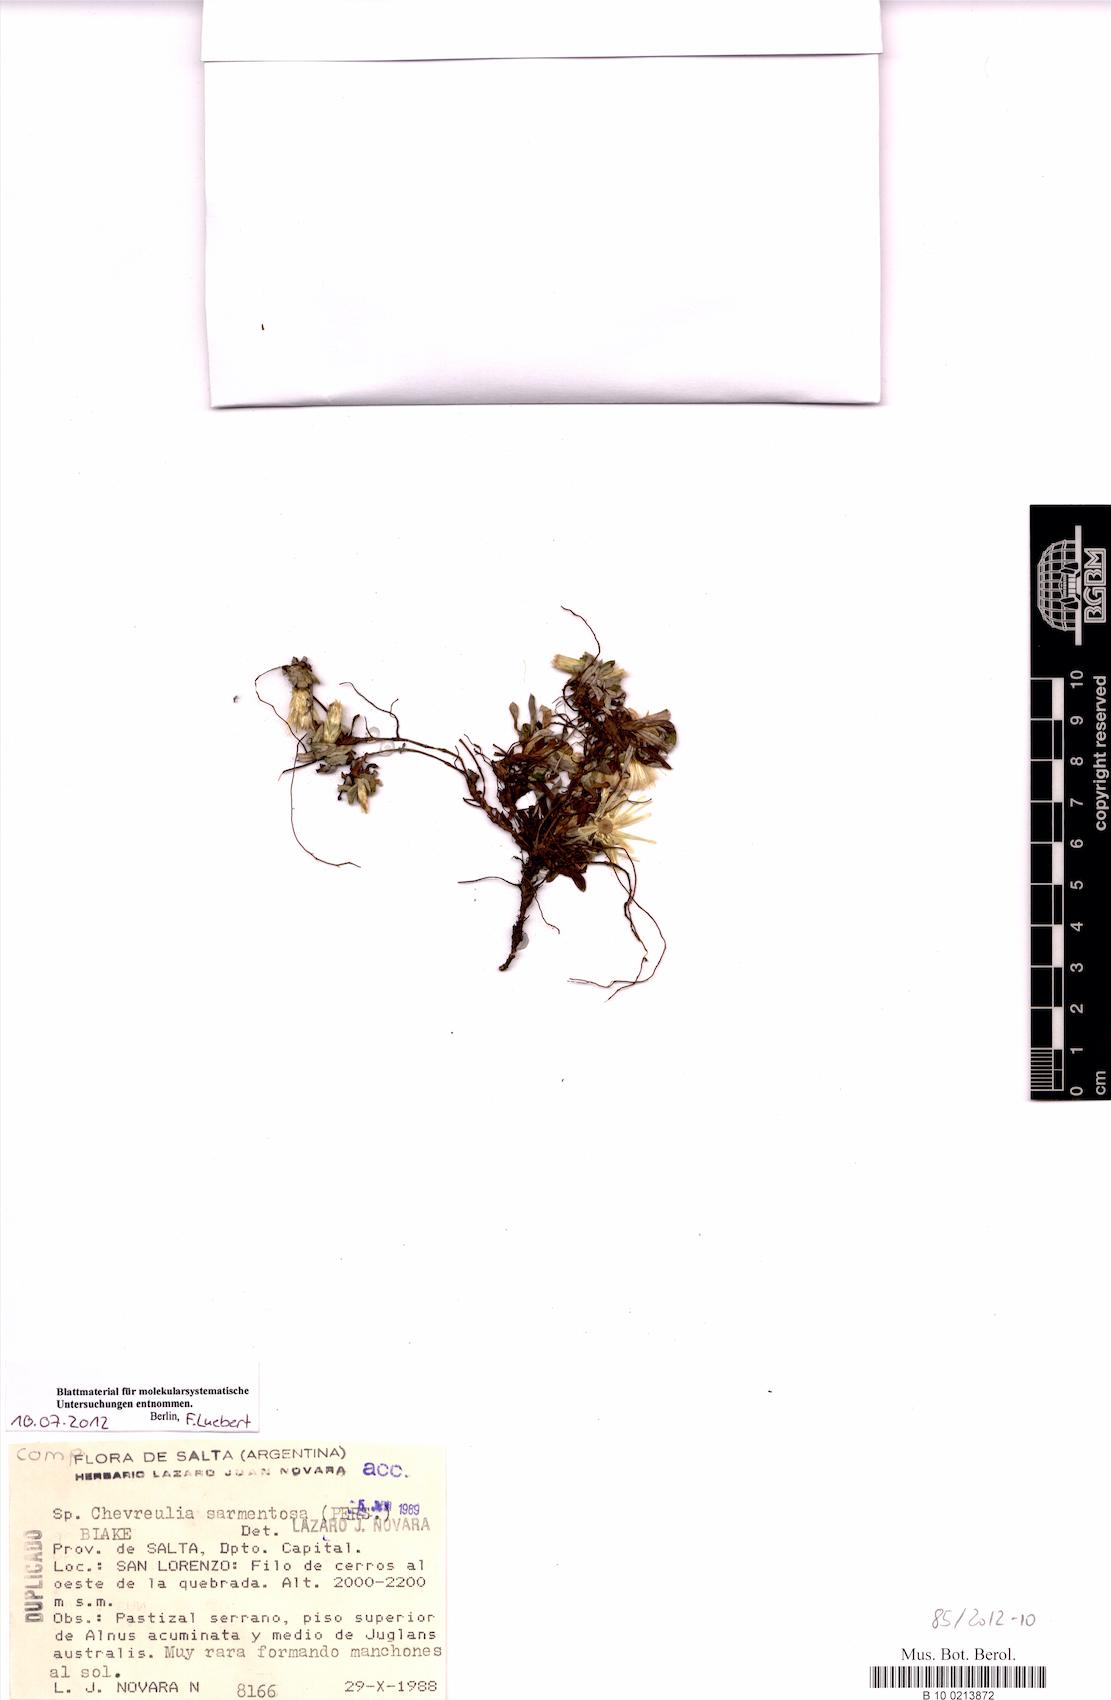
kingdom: Plantae
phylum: Tracheophyta
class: Magnoliopsida
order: Asterales
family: Asteraceae
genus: Chevreulia
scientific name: Chevreulia sarmentosa
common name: Sunflower
